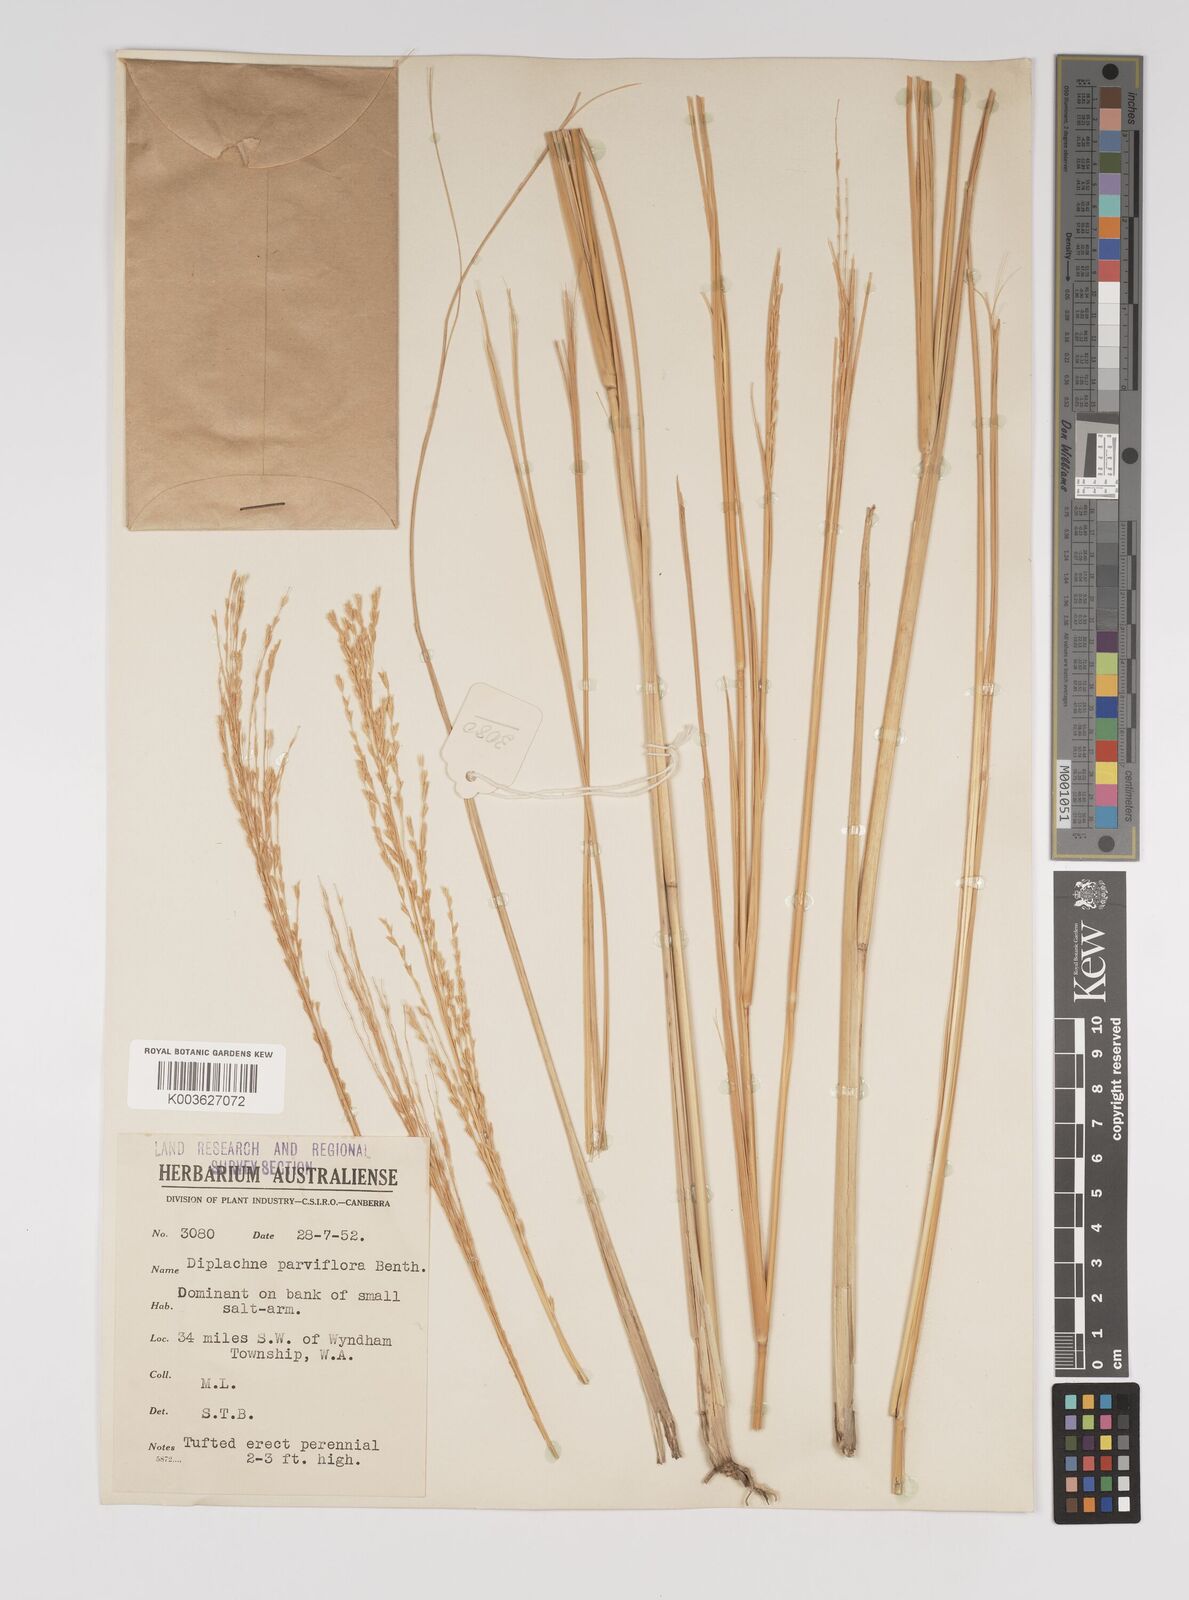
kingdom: Plantae
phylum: Tracheophyta
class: Liliopsida
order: Poales
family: Poaceae
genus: Diplachne
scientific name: Diplachne fusca
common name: Brown beetle grass
